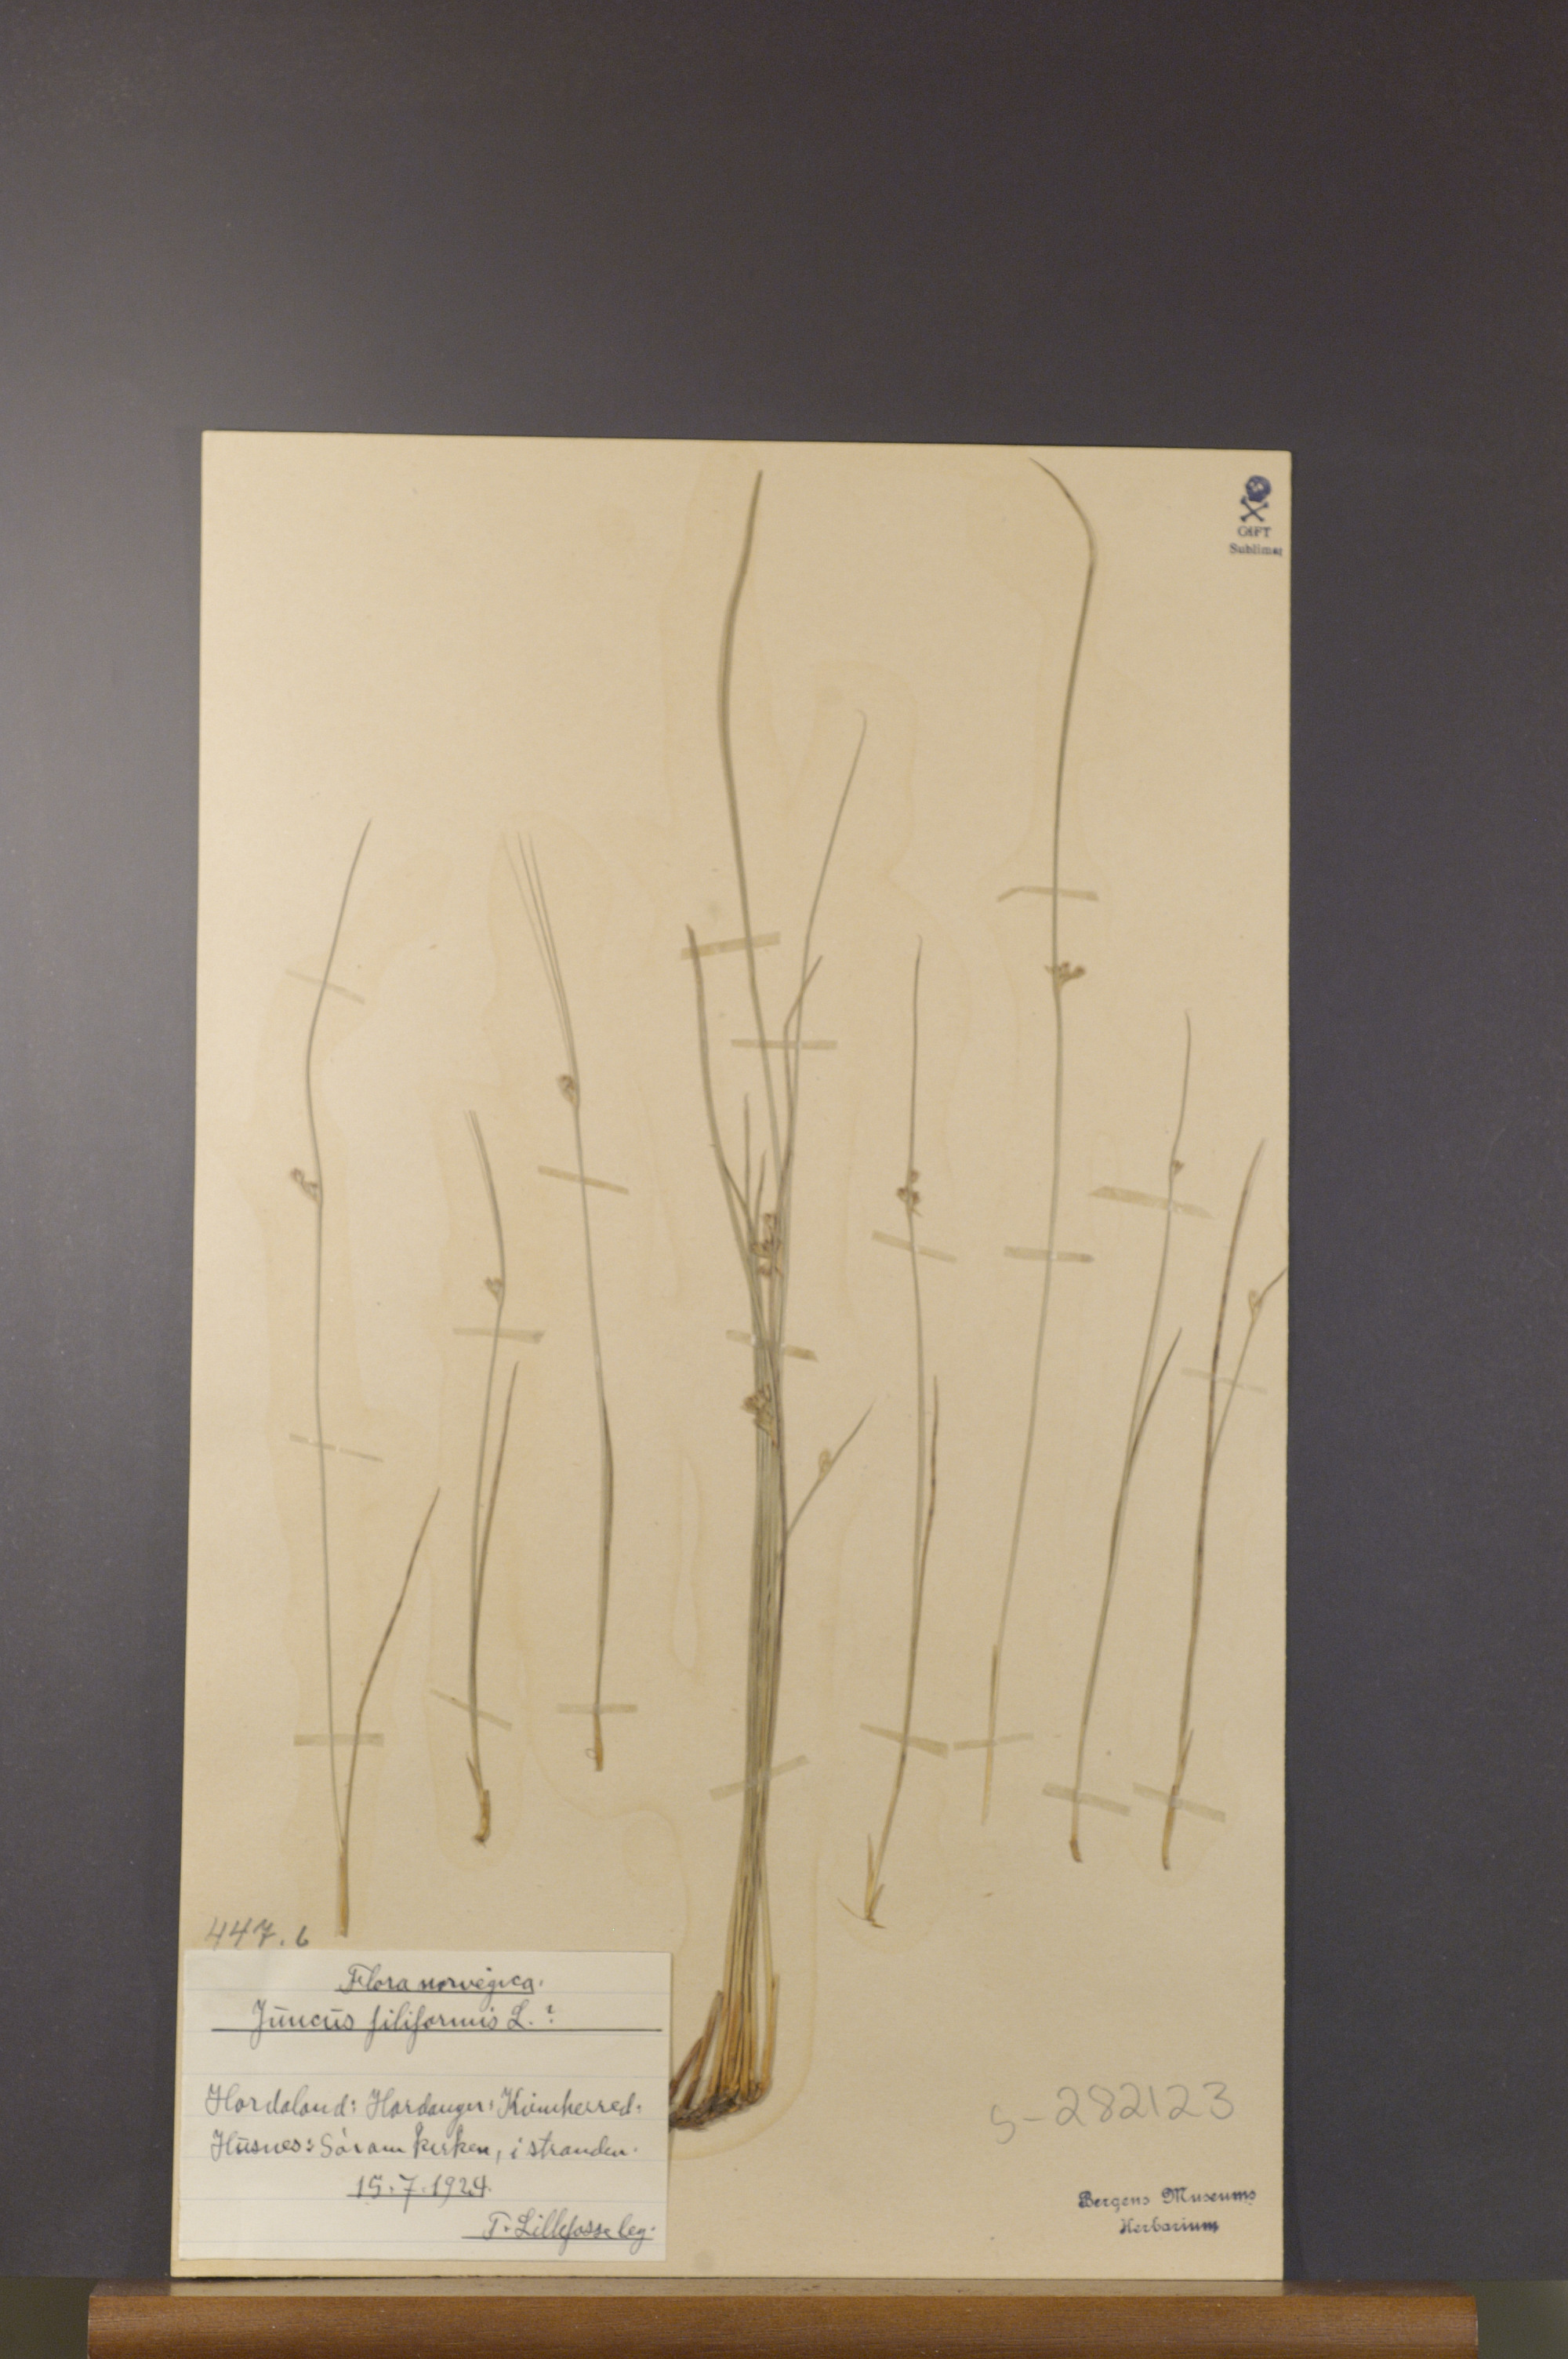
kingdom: Plantae
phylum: Tracheophyta
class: Liliopsida
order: Poales
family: Juncaceae
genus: Juncus
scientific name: Juncus filiformis
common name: Thread rush
